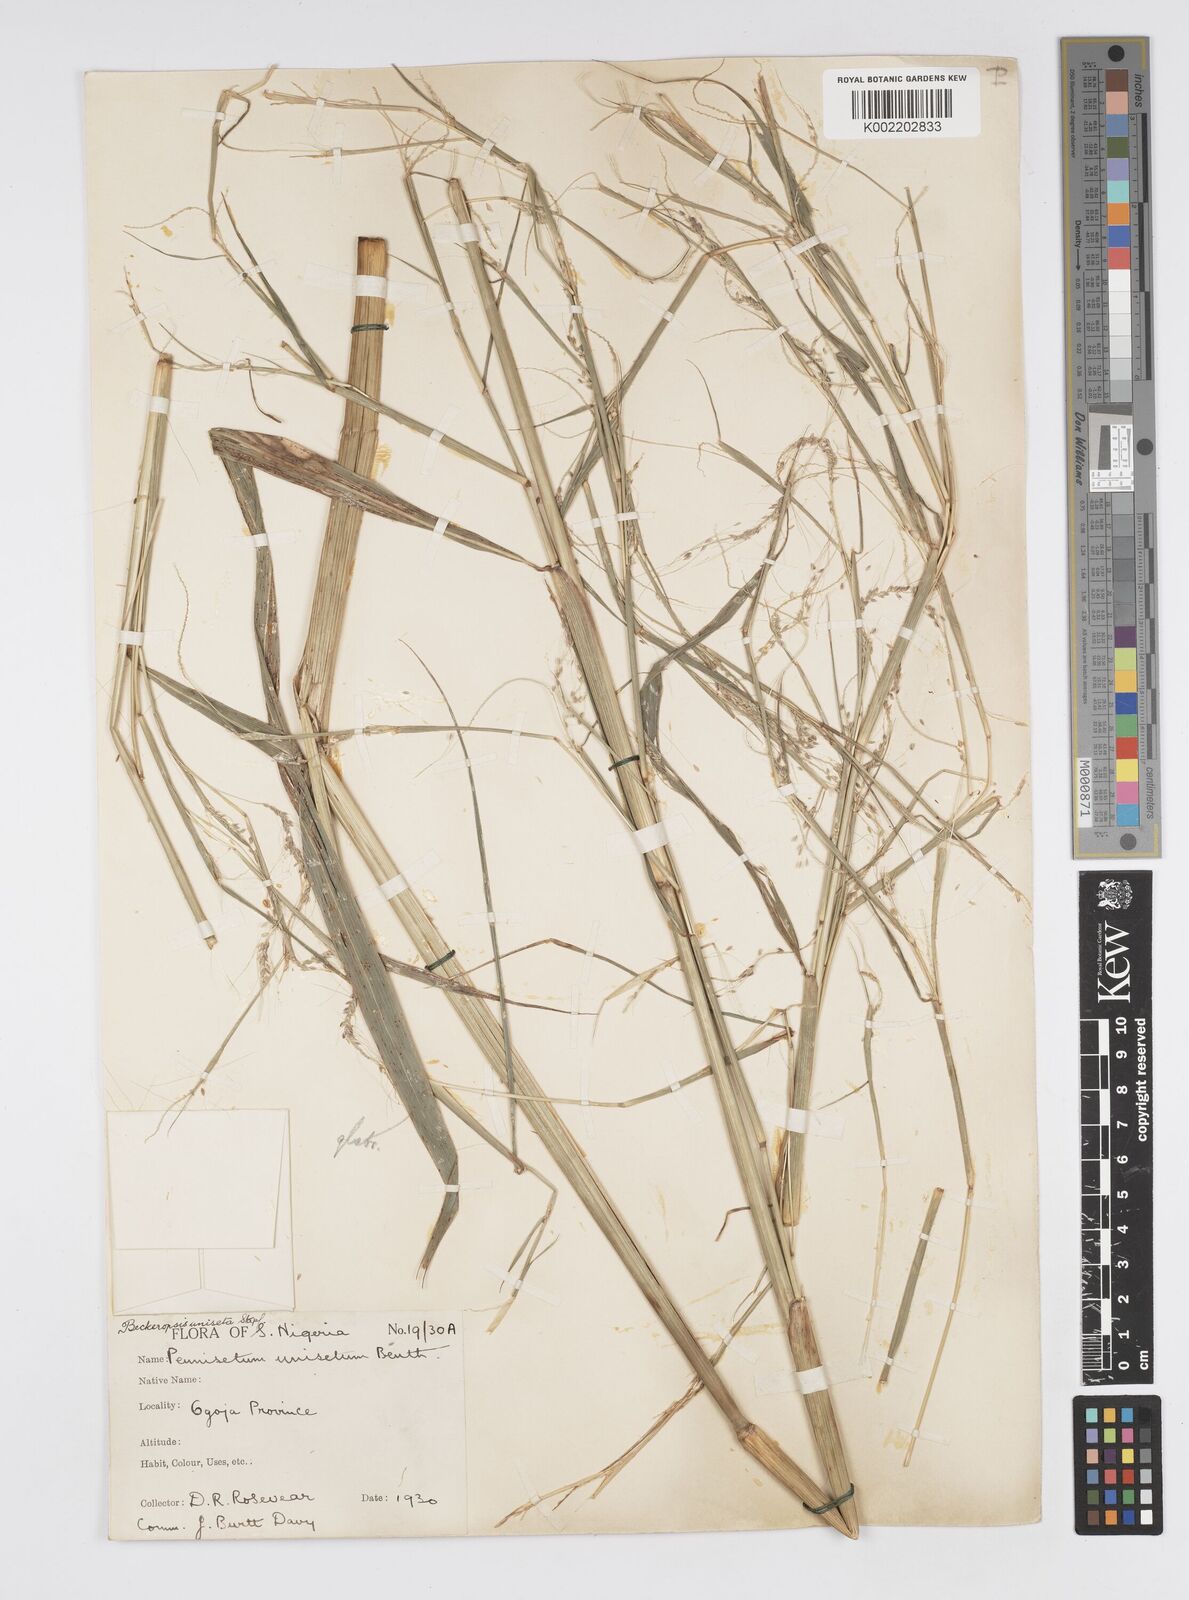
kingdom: Plantae
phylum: Tracheophyta
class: Liliopsida
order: Poales
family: Poaceae
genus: Cenchrus
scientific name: Cenchrus unisetus
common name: Natal grass
